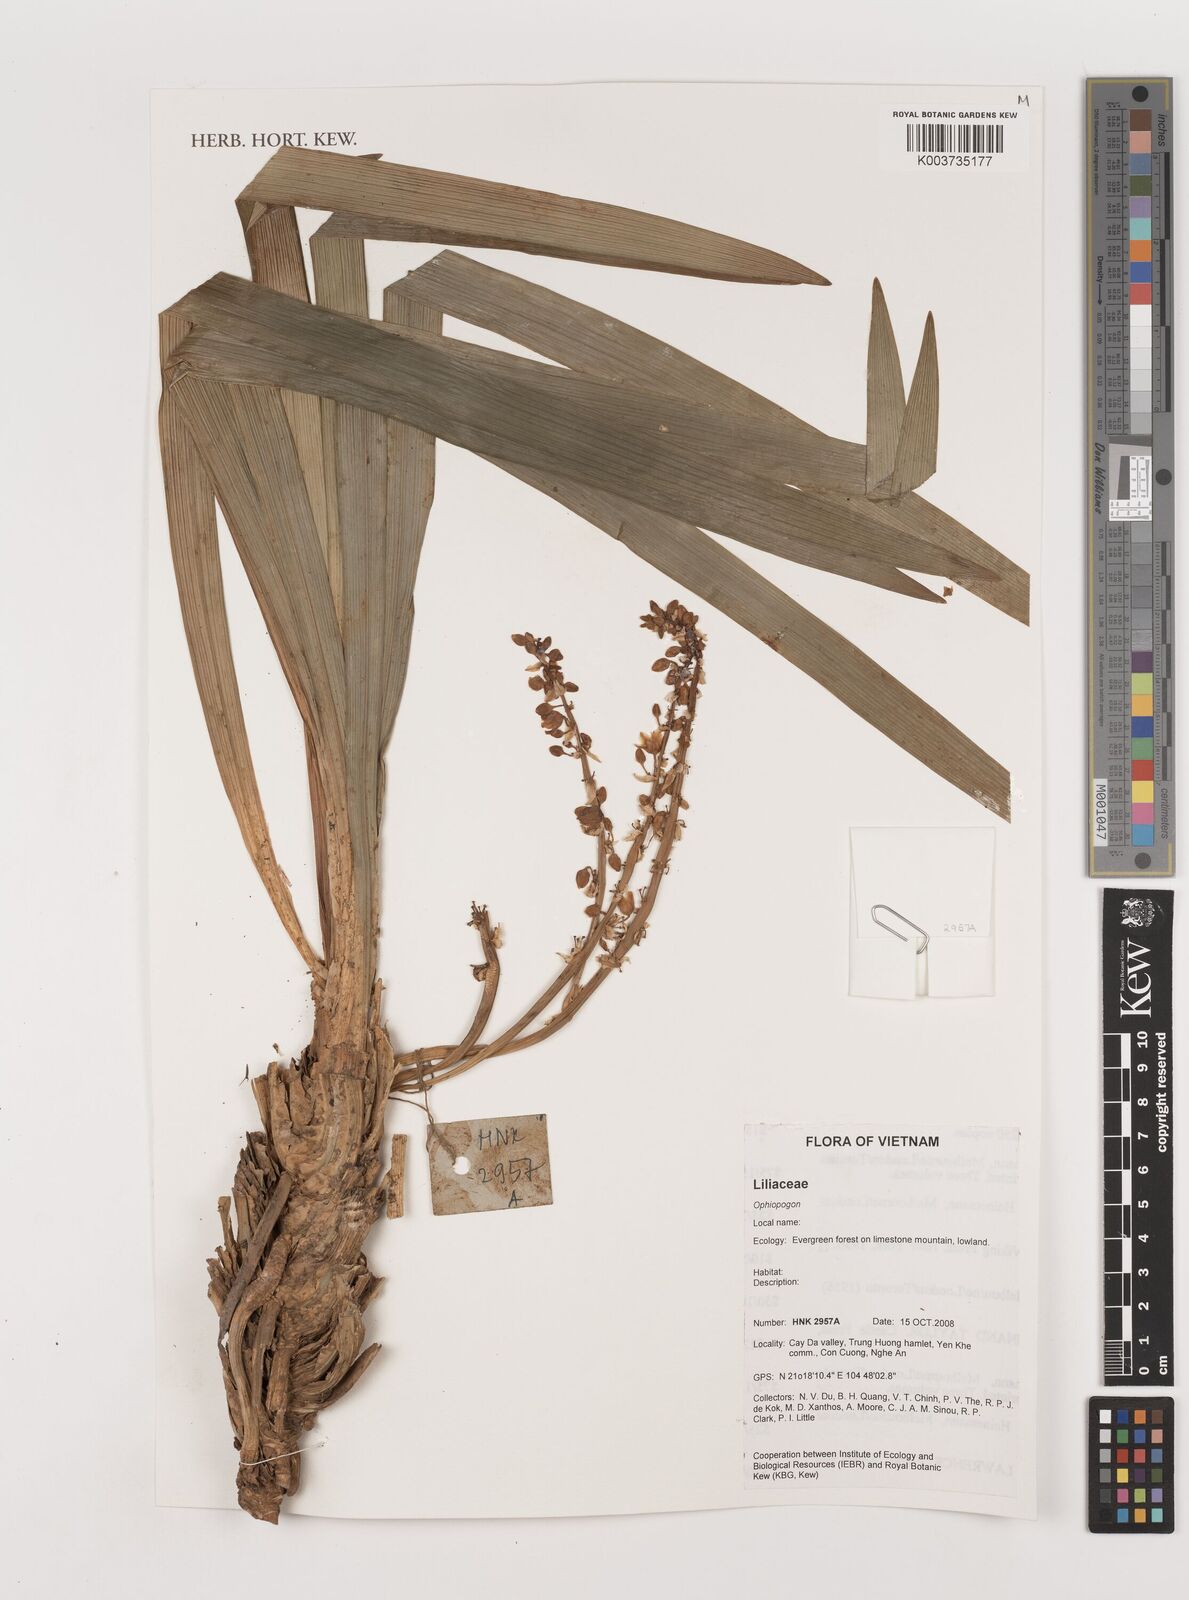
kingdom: Plantae
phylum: Tracheophyta
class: Liliopsida
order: Asparagales
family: Asparagaceae
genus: Ophiopogon
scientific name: Ophiopogon
